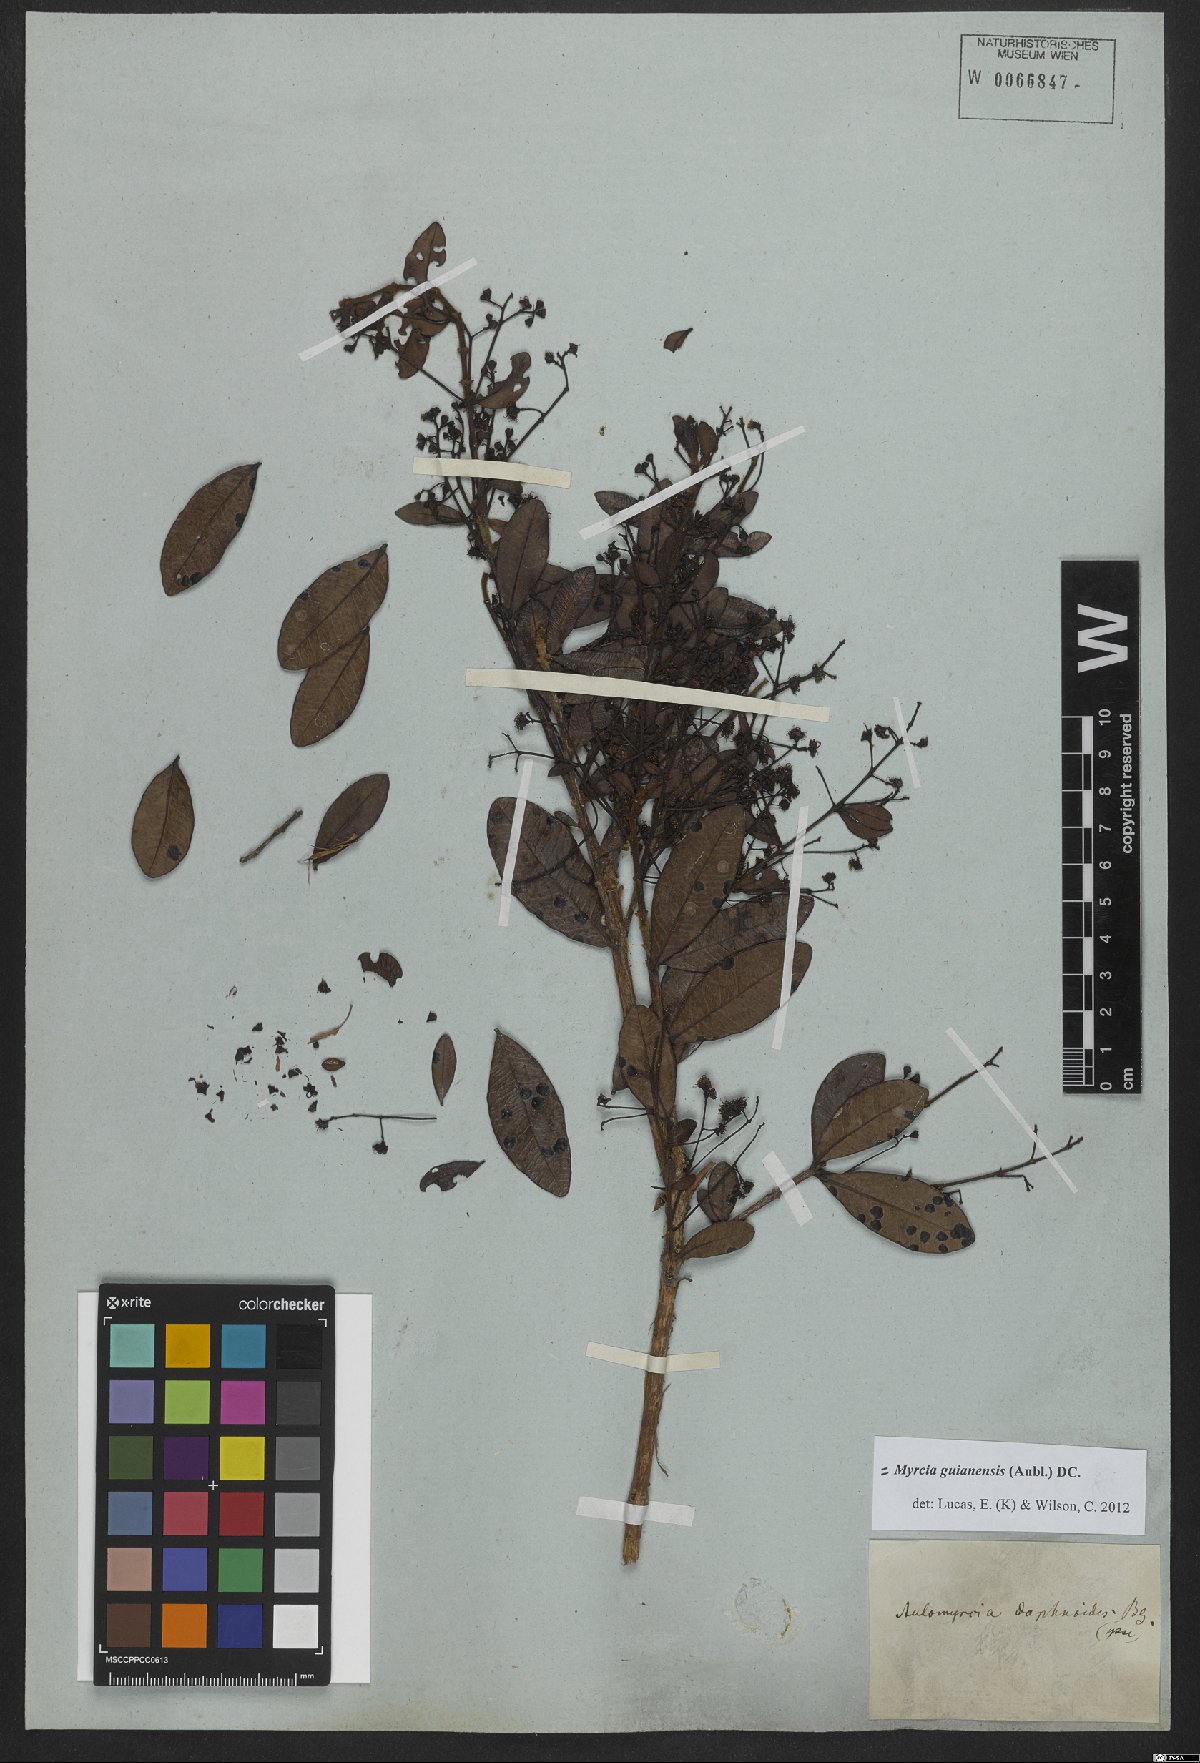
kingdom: Plantae
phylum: Tracheophyta
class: Magnoliopsida
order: Myrtales
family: Myrtaceae
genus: Myrcia
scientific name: Myrcia guianensis
